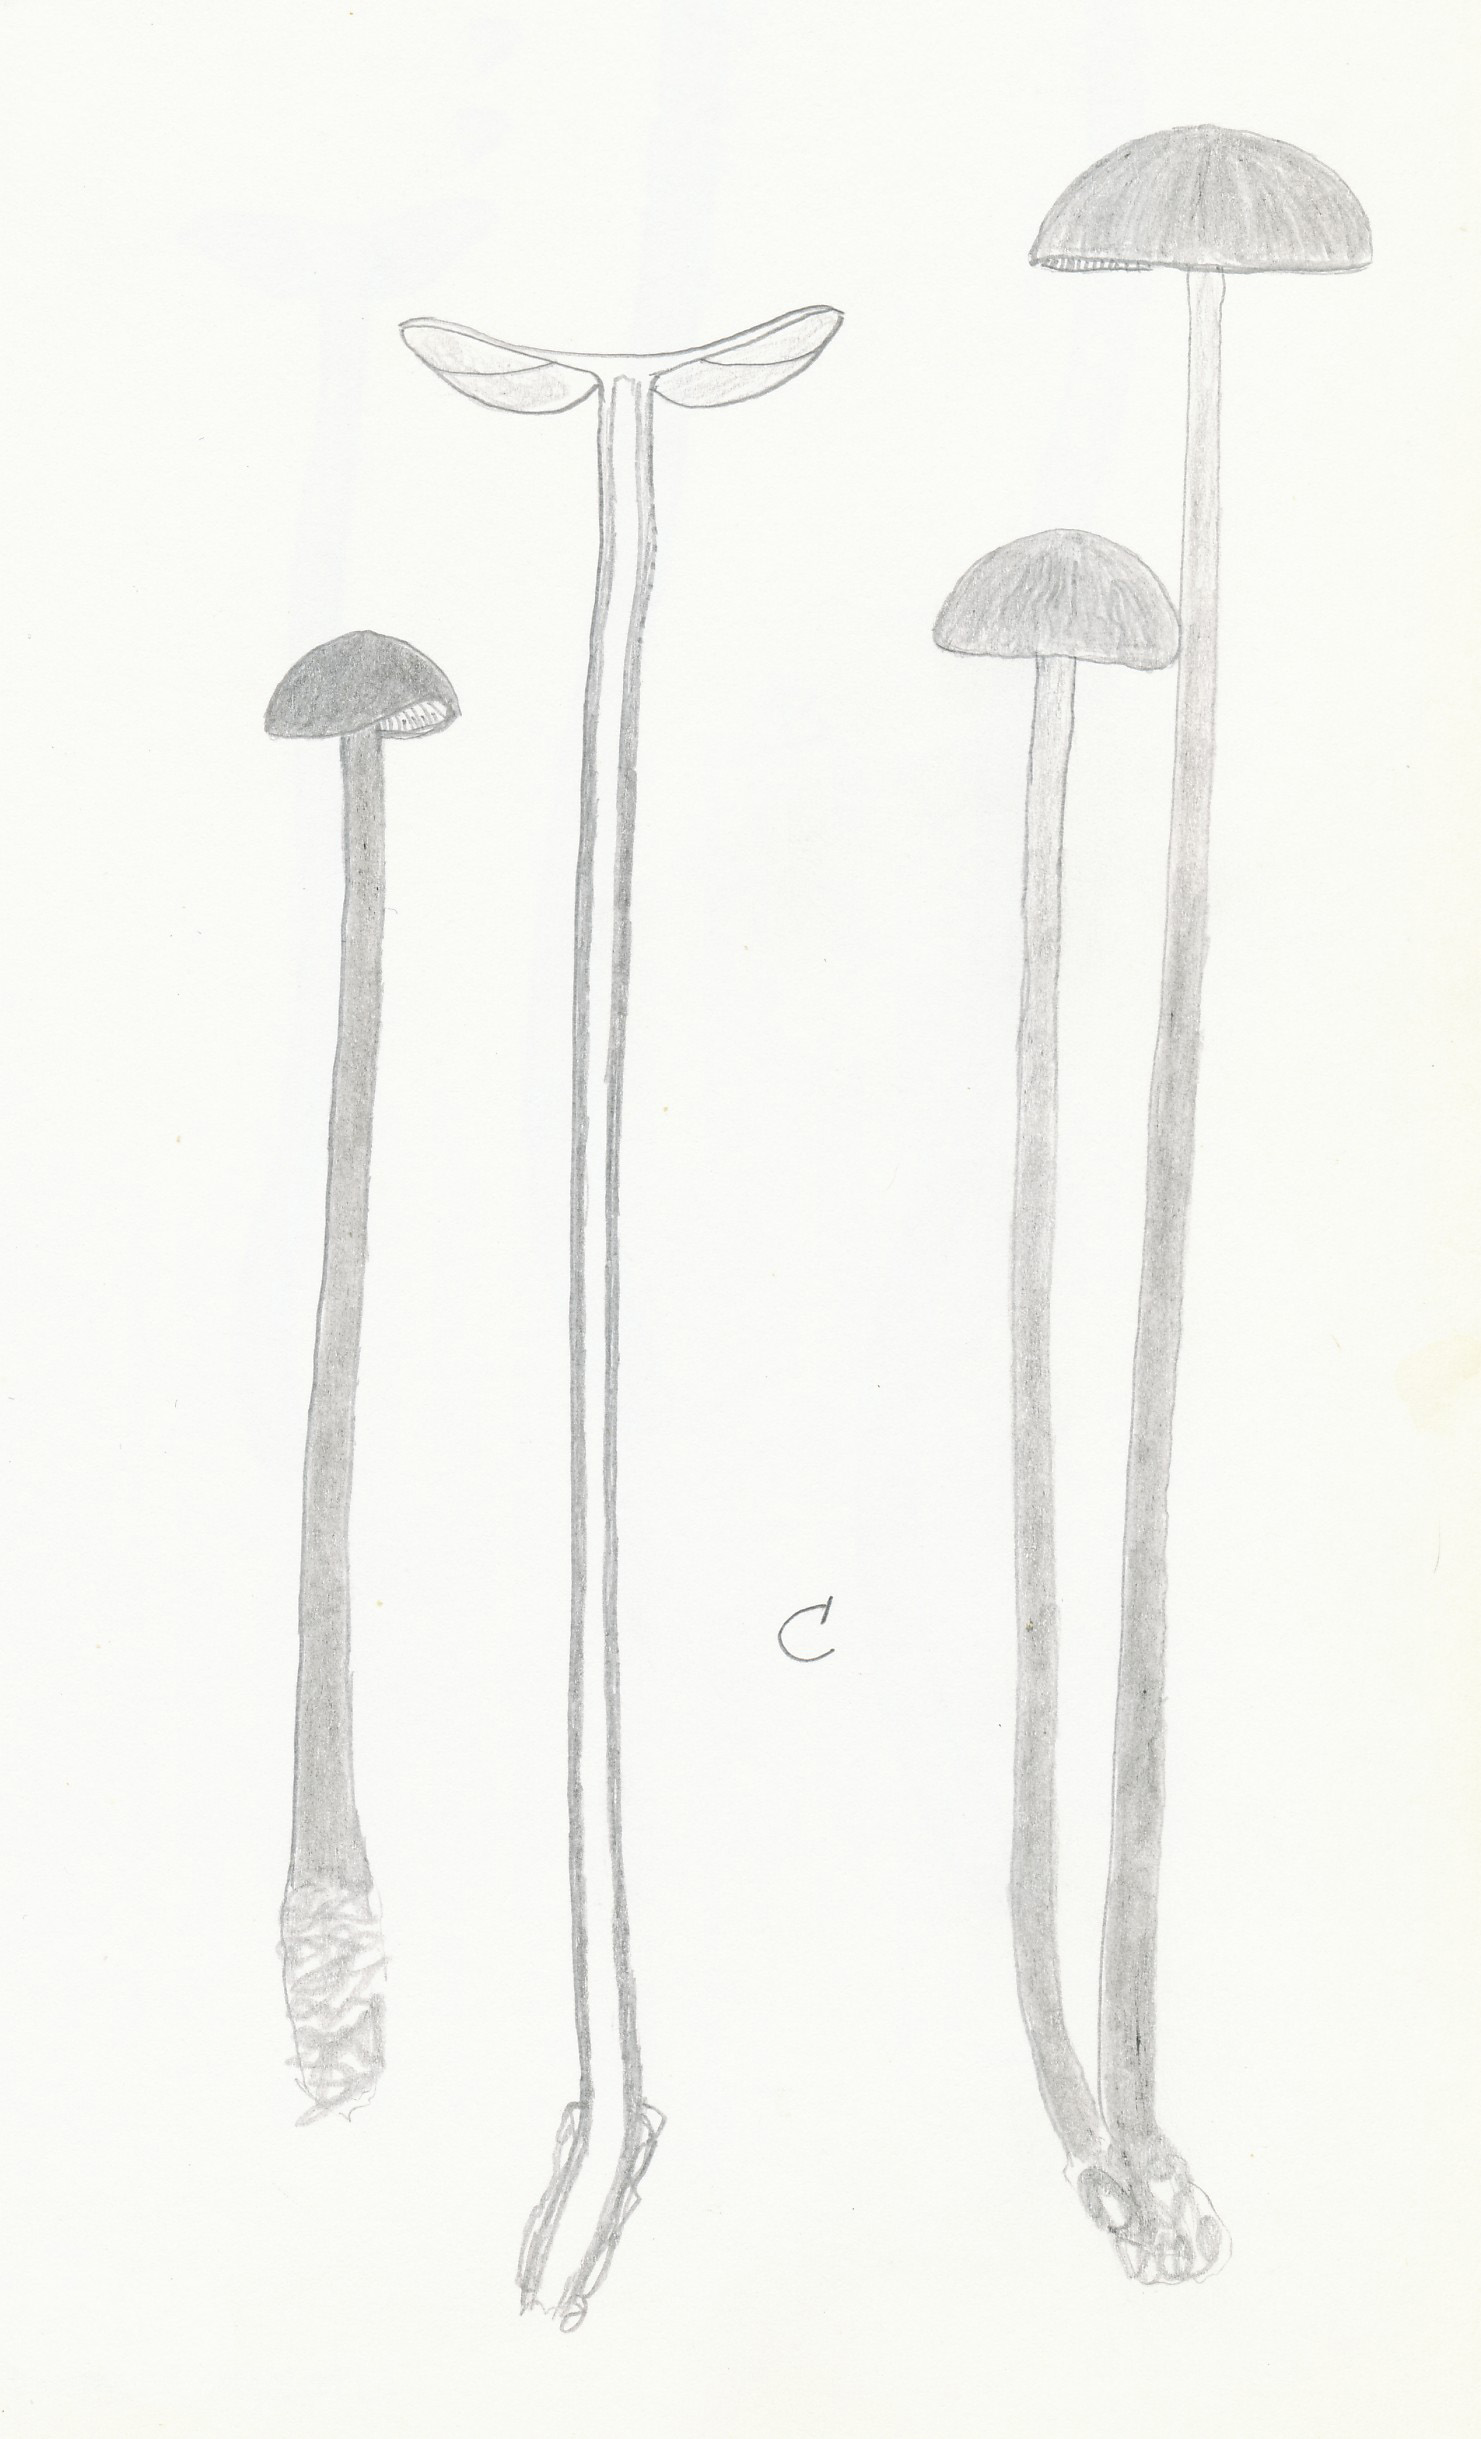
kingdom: Fungi
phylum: Basidiomycota
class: Agaricomycetes
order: Agaricales
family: Omphalotaceae
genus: Mycetinis
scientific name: Mycetinis alliaceus
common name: stor løghat
